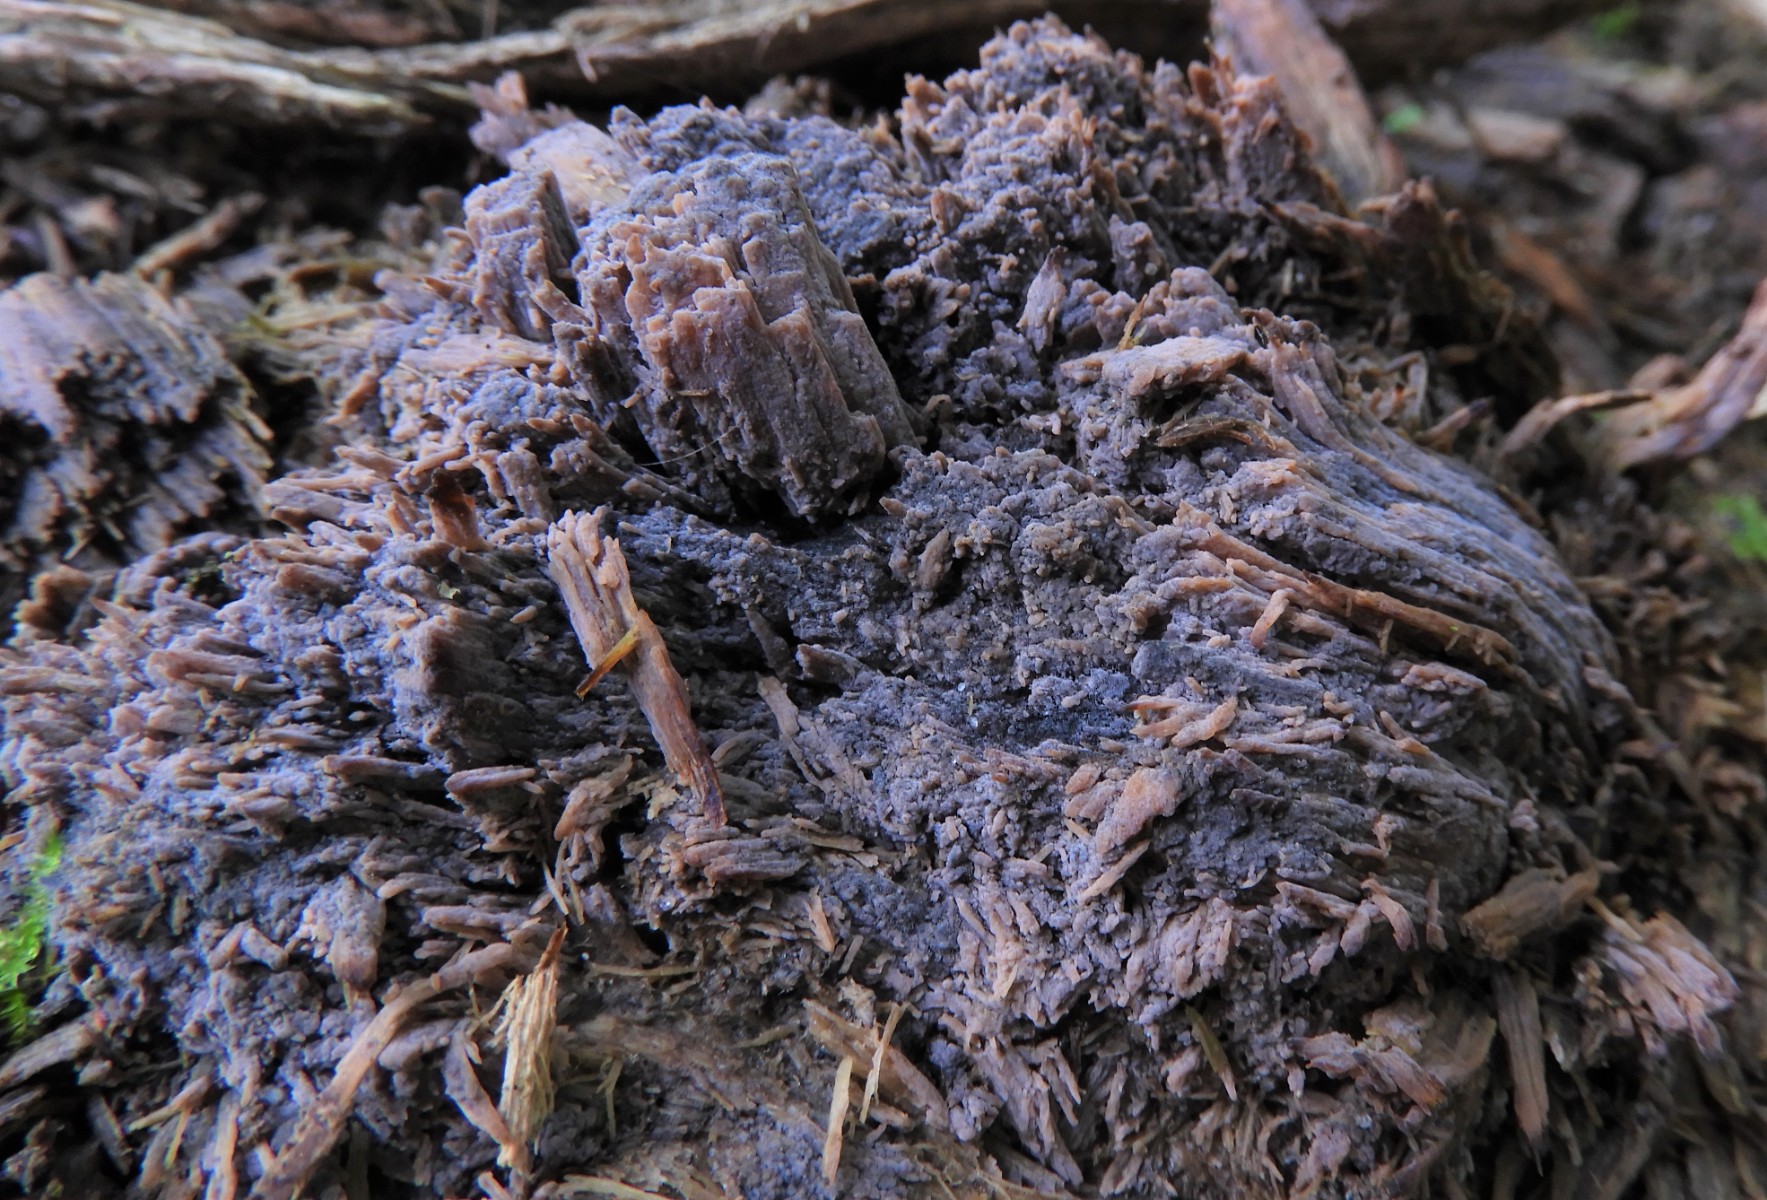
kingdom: Fungi
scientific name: Fungi
